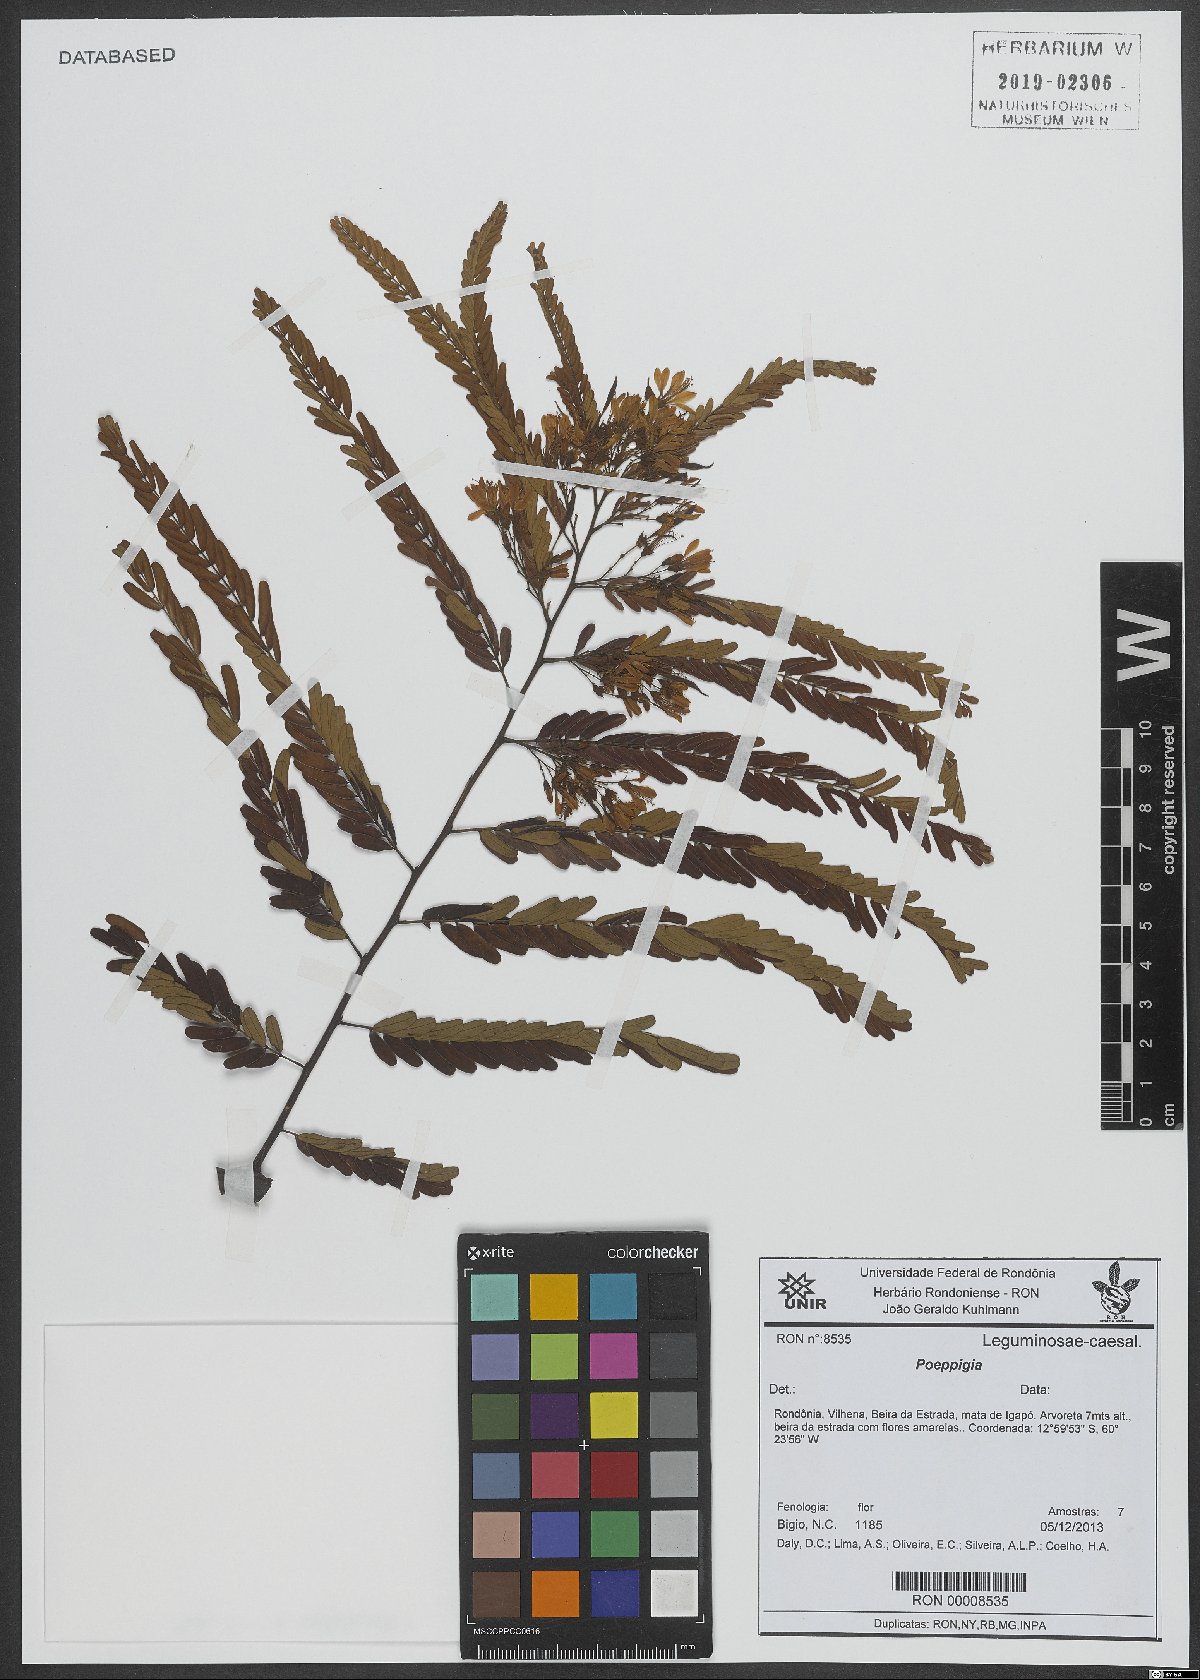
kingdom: Plantae
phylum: Tracheophyta
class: Magnoliopsida
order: Fabales
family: Fabaceae
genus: Poeppigia
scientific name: Poeppigia
